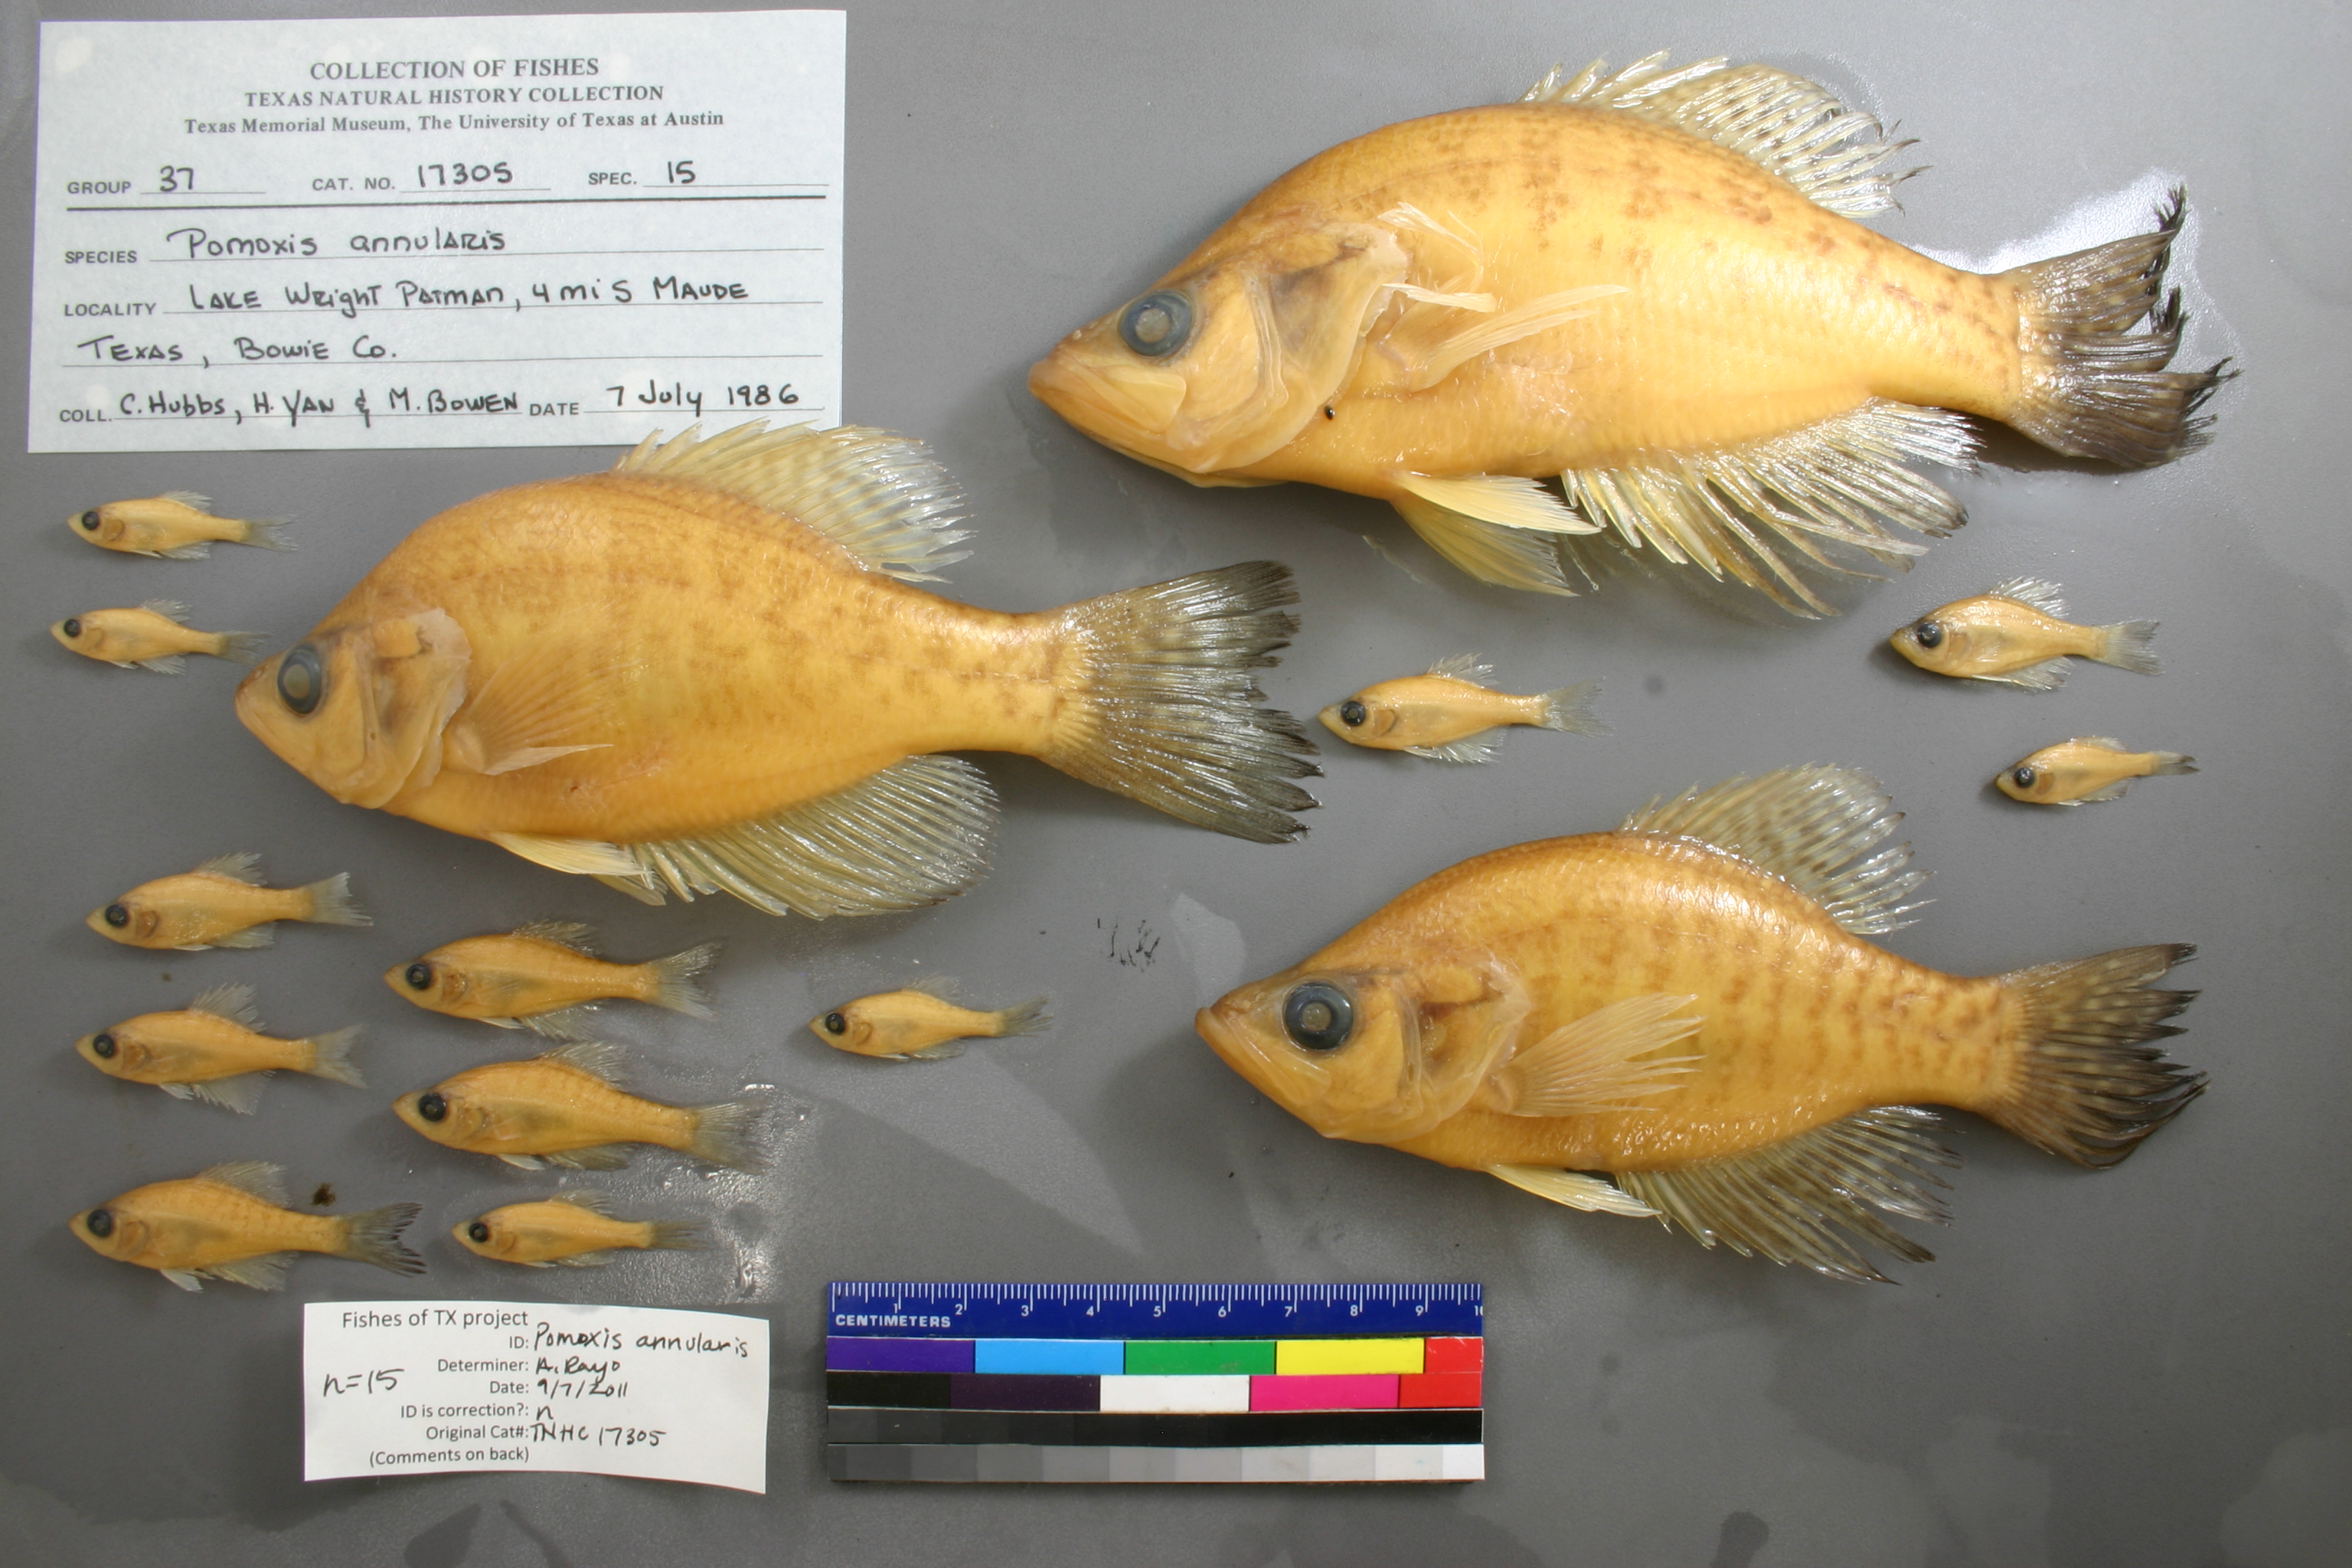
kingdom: Animalia
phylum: Chordata
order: Perciformes
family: Centrarchidae
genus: Pomoxis
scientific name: Pomoxis annularis
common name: White crappie
